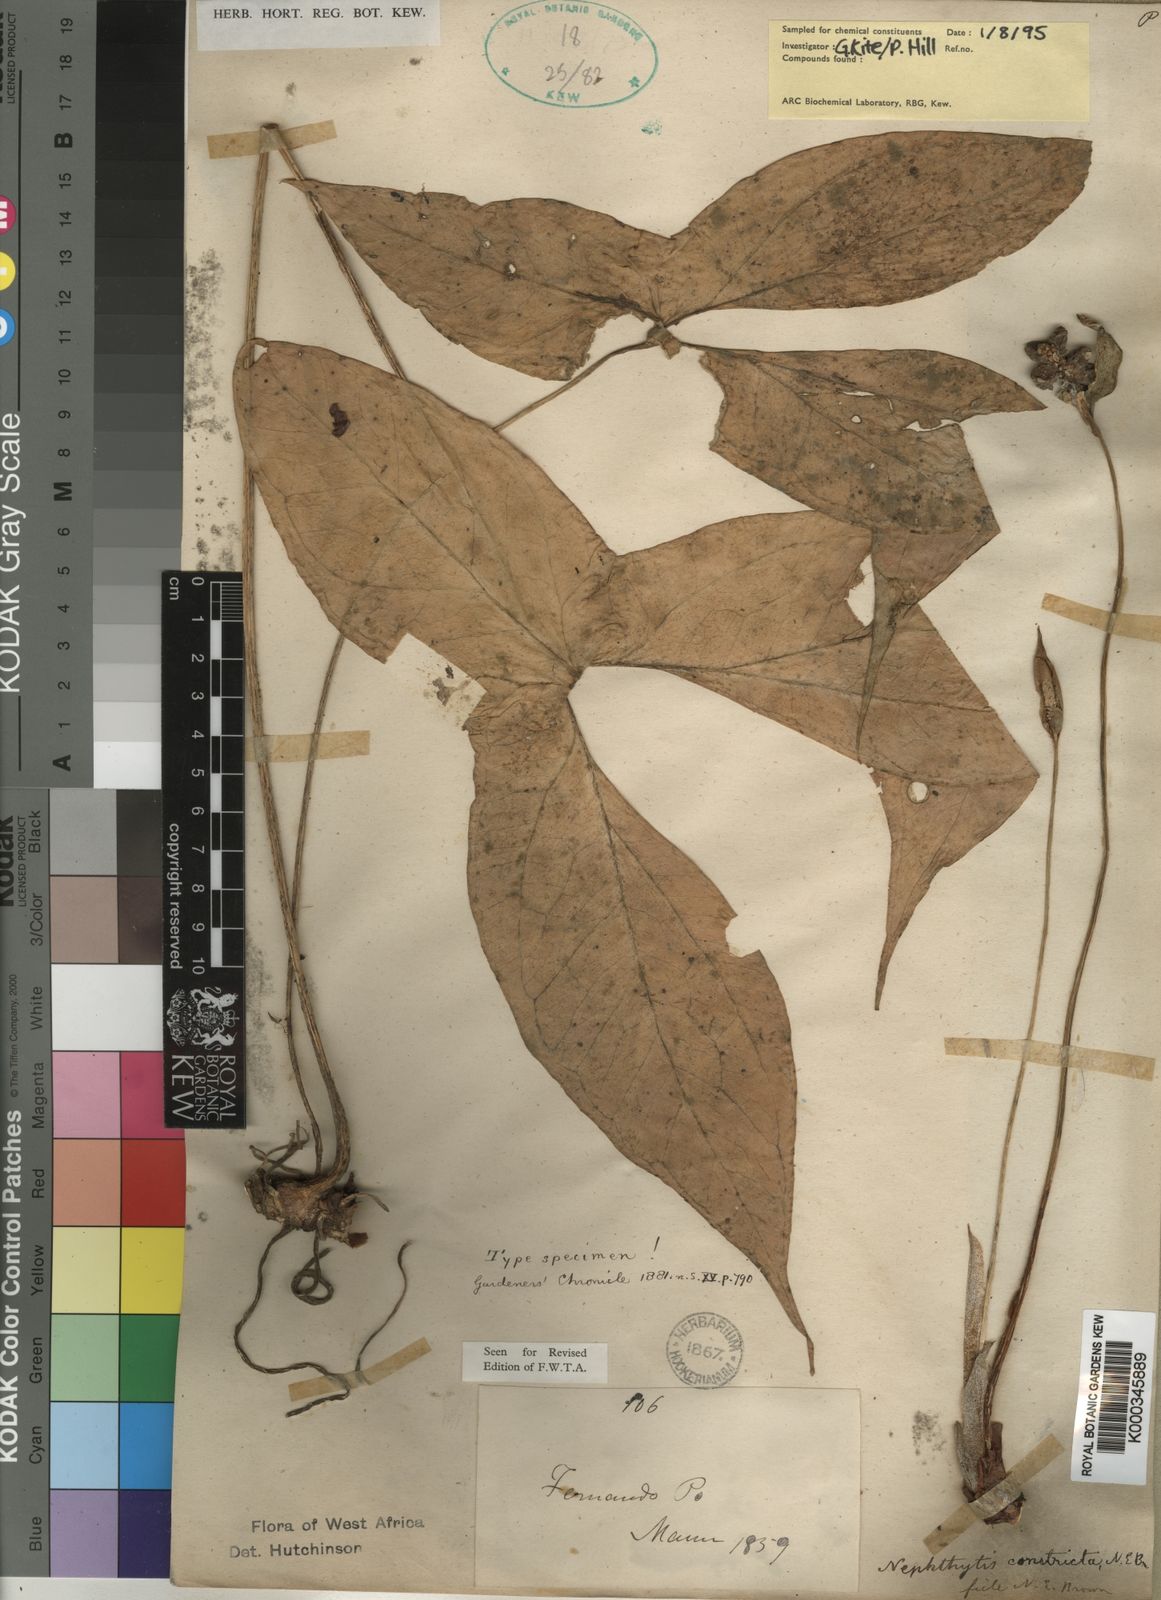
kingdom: Plantae
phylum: Tracheophyta
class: Liliopsida
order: Alismatales
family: Araceae
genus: Nephthytis
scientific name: Nephthytis poissonii
